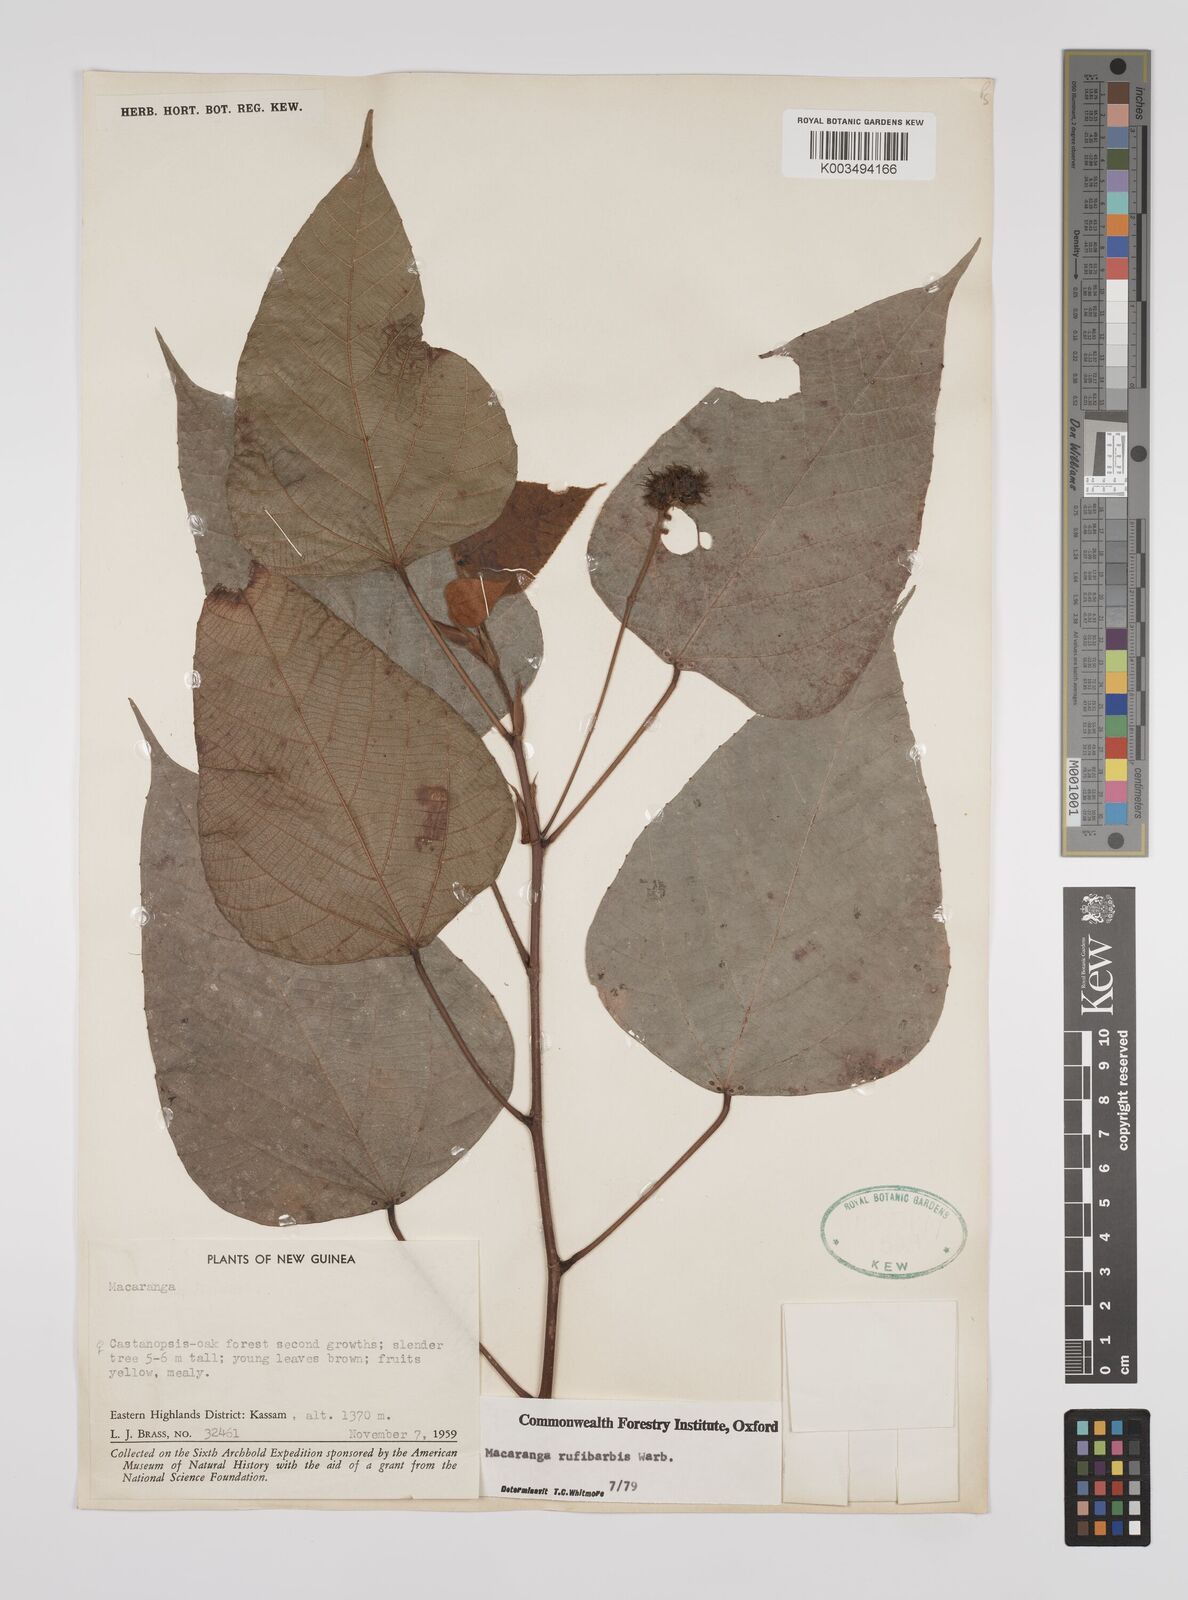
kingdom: Plantae
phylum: Tracheophyta
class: Magnoliopsida
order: Malpighiales
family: Euphorbiaceae
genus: Macaranga
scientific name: Macaranga rufibarbis
